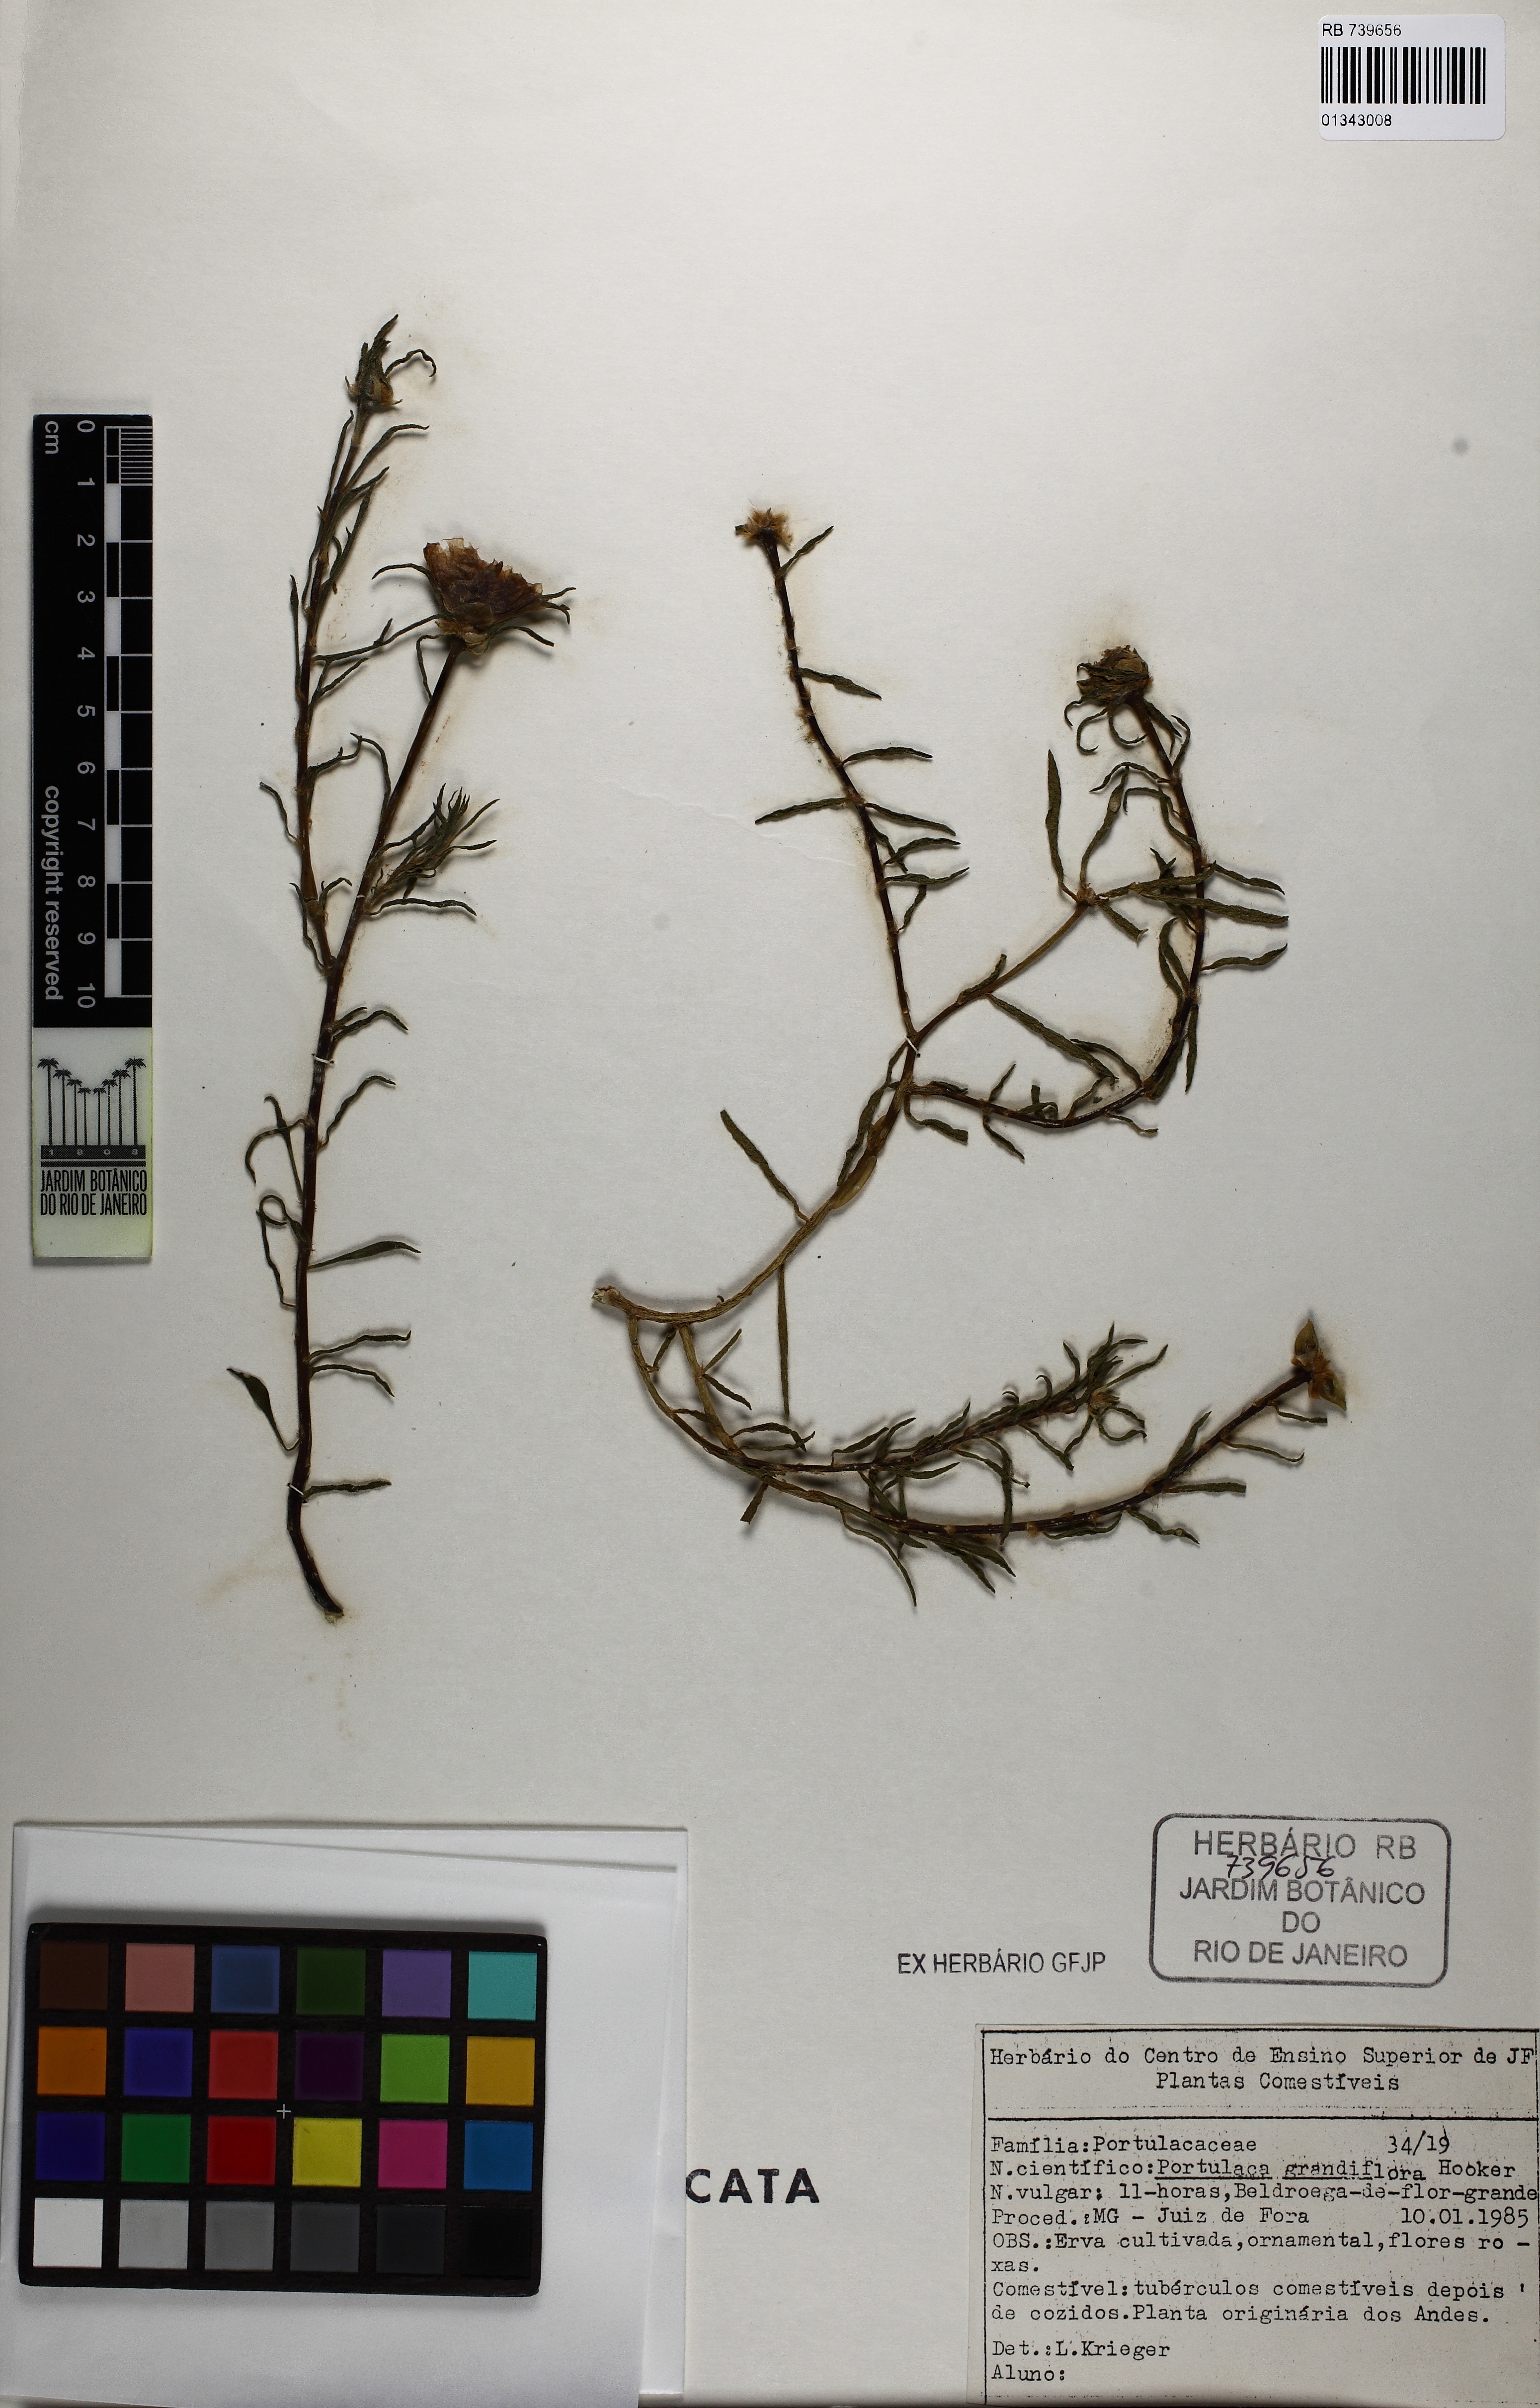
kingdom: Plantae
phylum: Tracheophyta
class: Magnoliopsida
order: Caryophyllales
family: Portulacaceae
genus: Portulaca
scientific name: Portulaca grandiflora
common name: Moss-rose
